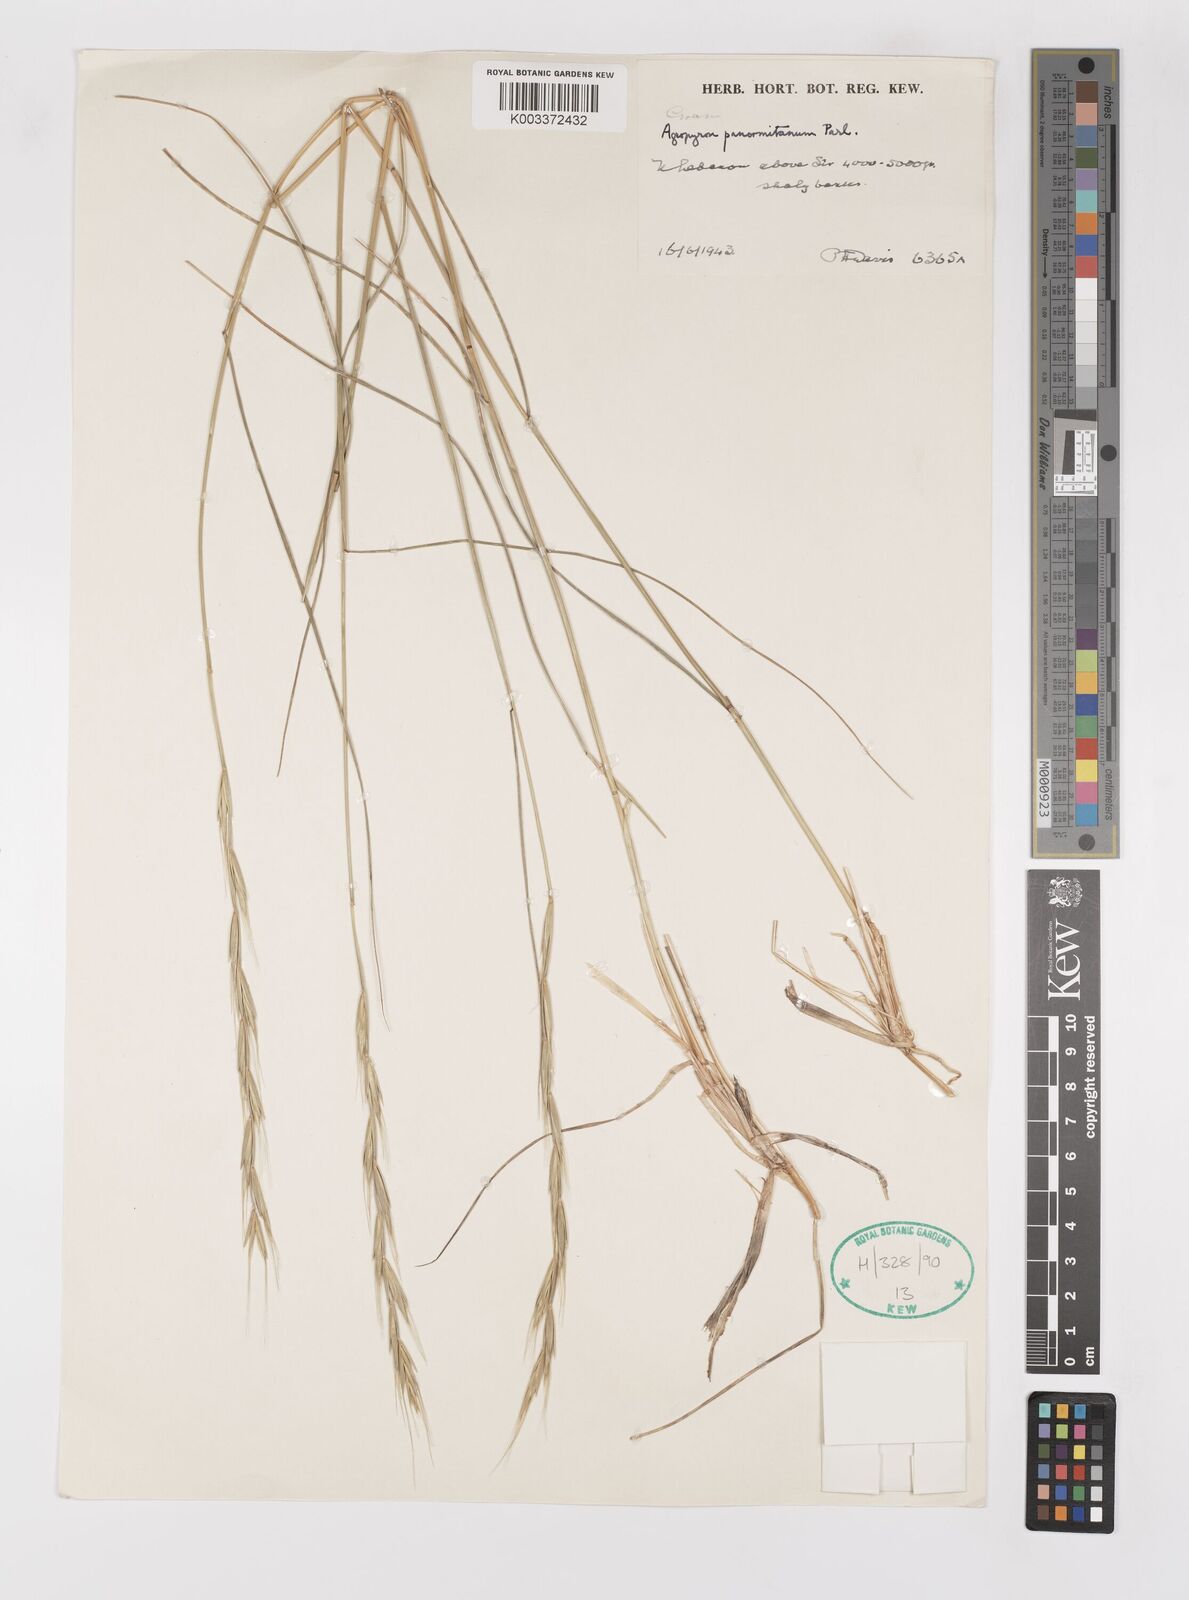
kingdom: Plantae
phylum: Tracheophyta
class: Liliopsida
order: Poales
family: Poaceae
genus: Elymus
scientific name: Elymus panormitanus
